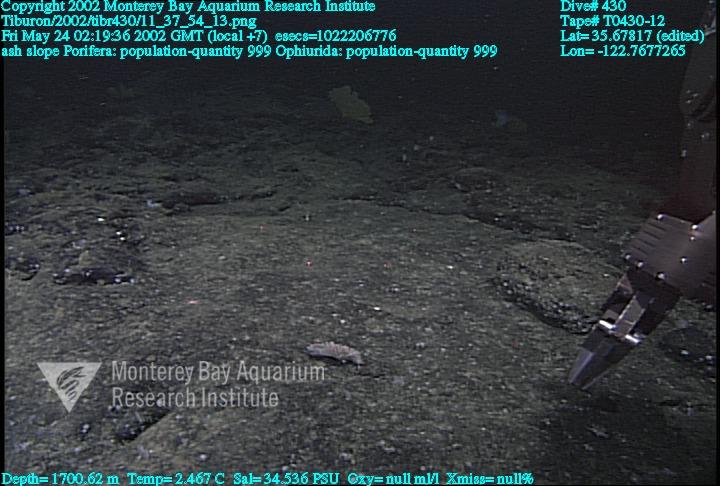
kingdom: Animalia
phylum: Porifera
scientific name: Porifera
